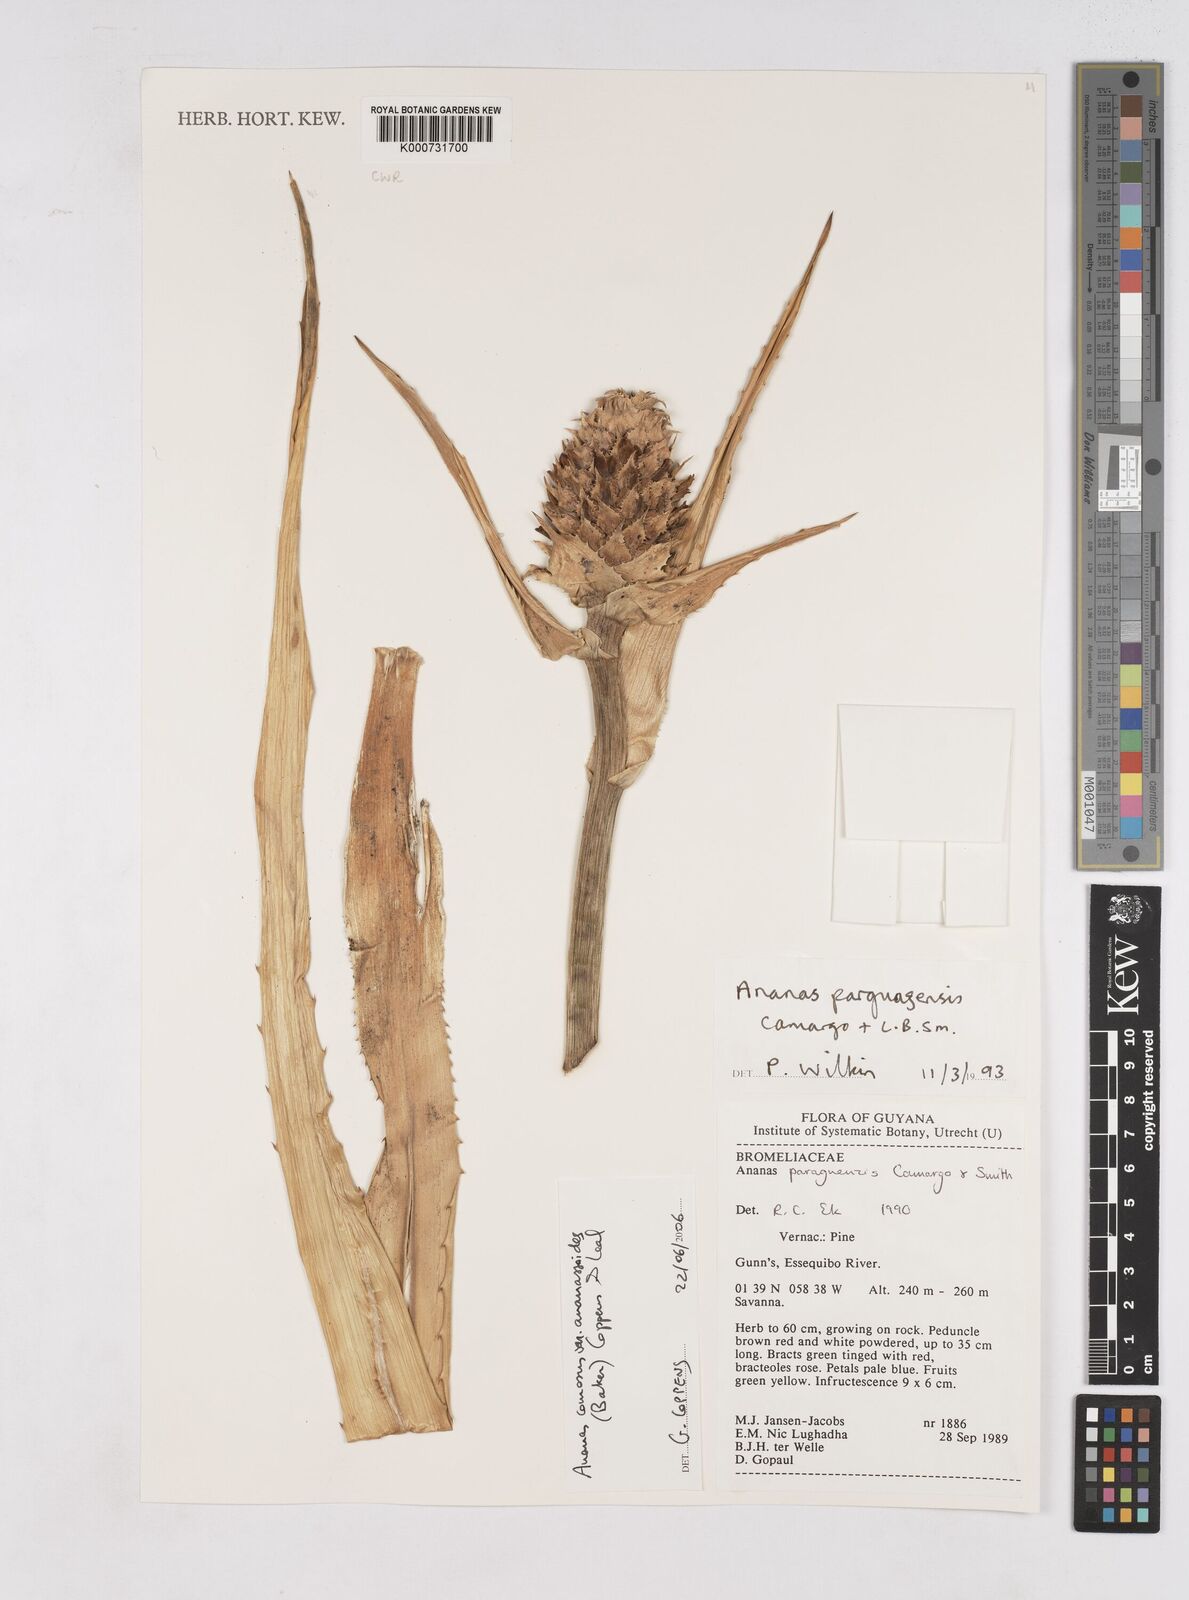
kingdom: Plantae
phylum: Tracheophyta
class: Liliopsida
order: Poales
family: Bromeliaceae
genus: Ananas
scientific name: Ananas comosus
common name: Pineapple
